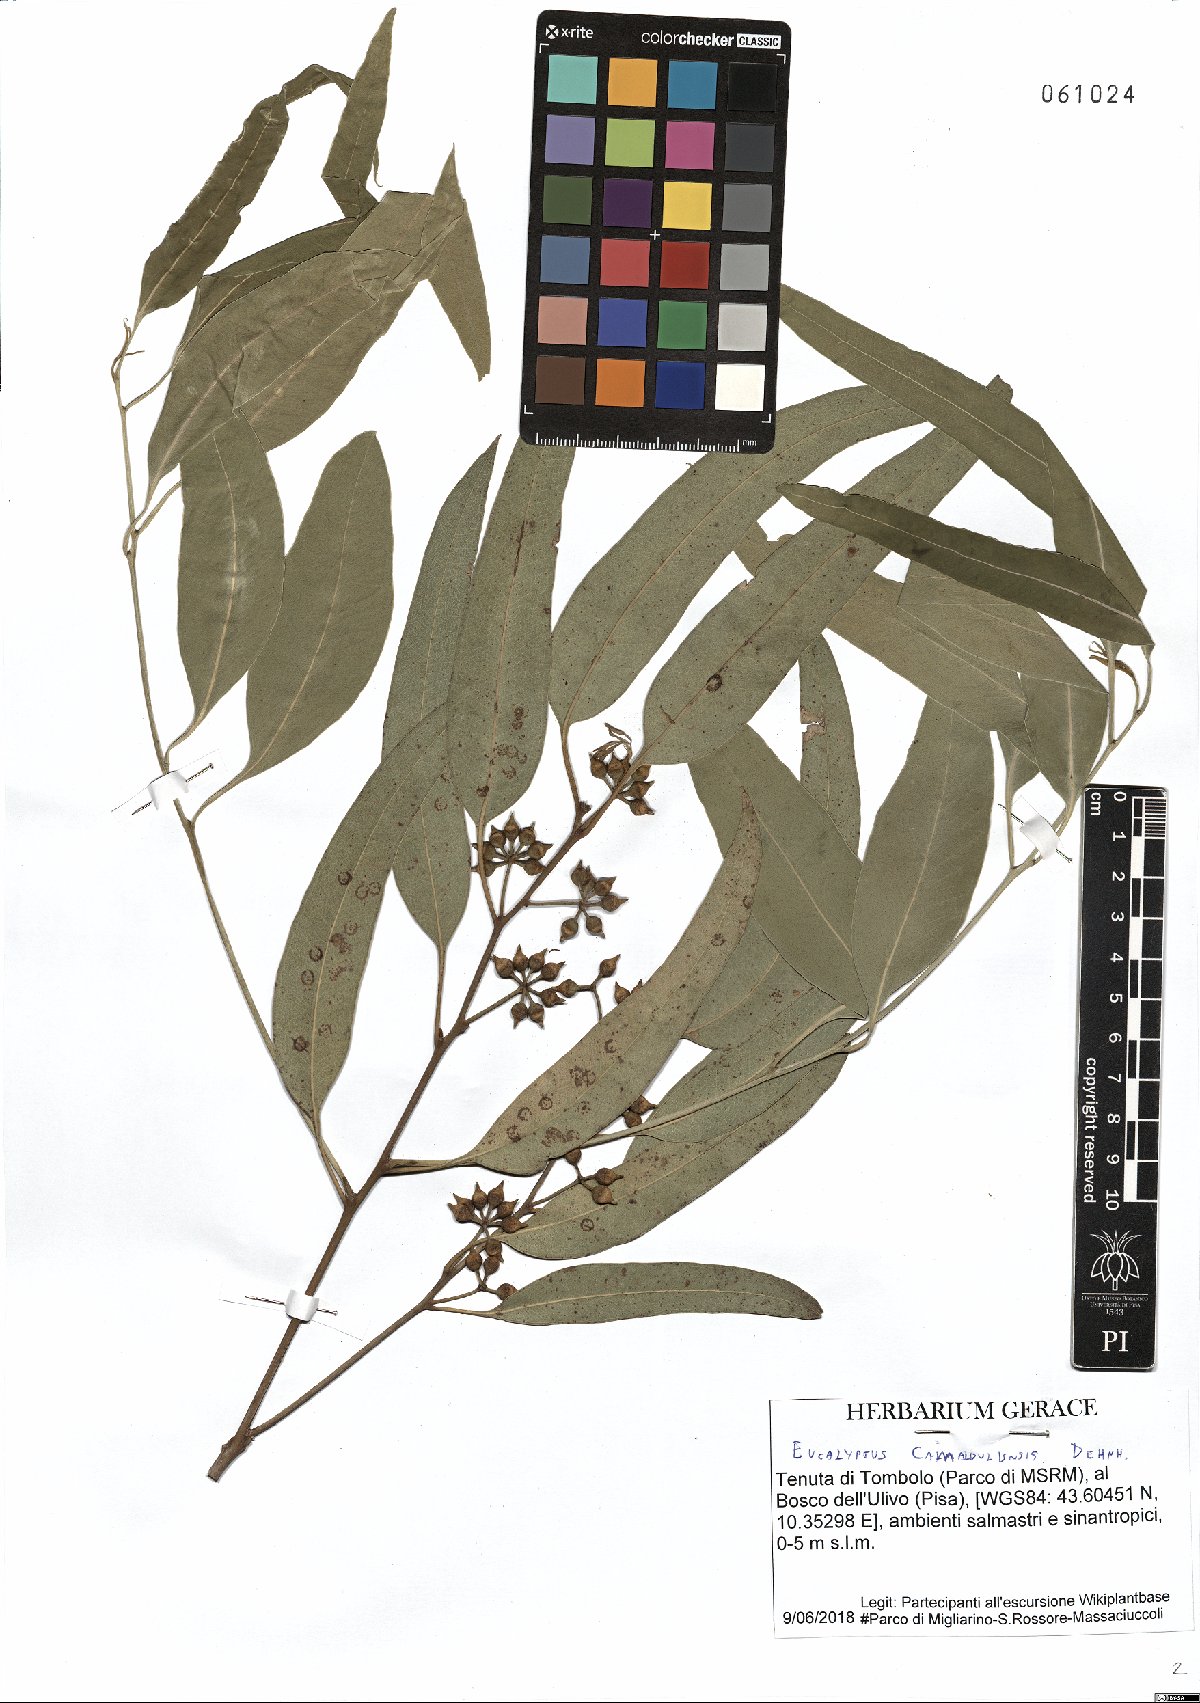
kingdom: Plantae
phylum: Tracheophyta
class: Magnoliopsida
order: Myrtales
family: Myrtaceae
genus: Eucalyptus
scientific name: Eucalyptus camaldulensis
